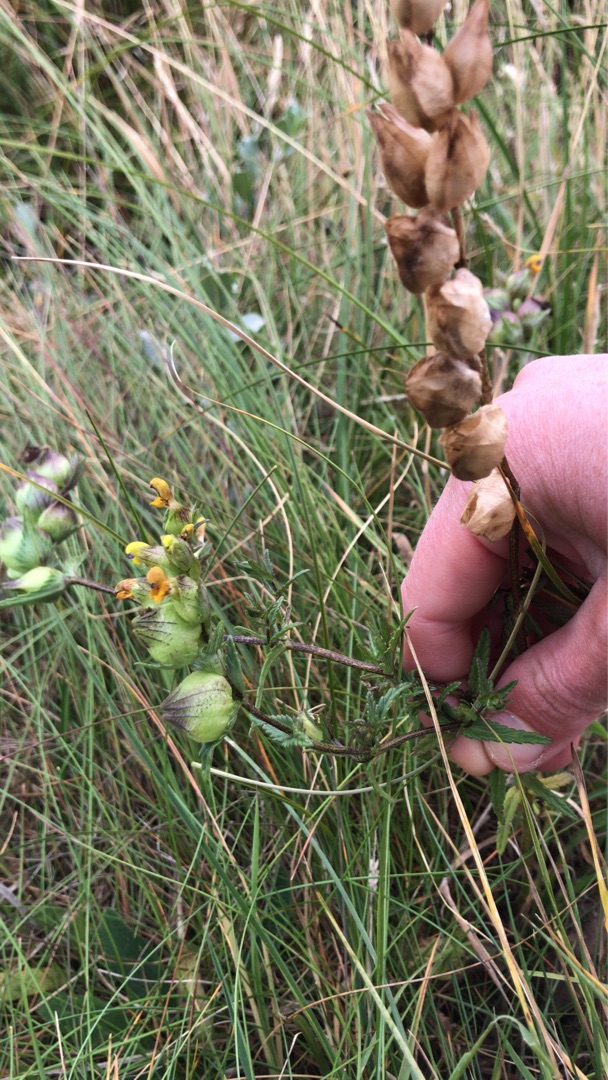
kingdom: Plantae
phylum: Tracheophyta
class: Magnoliopsida
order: Lamiales
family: Orobanchaceae
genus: Rhinanthus
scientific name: Rhinanthus minor
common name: Liden skjaller
